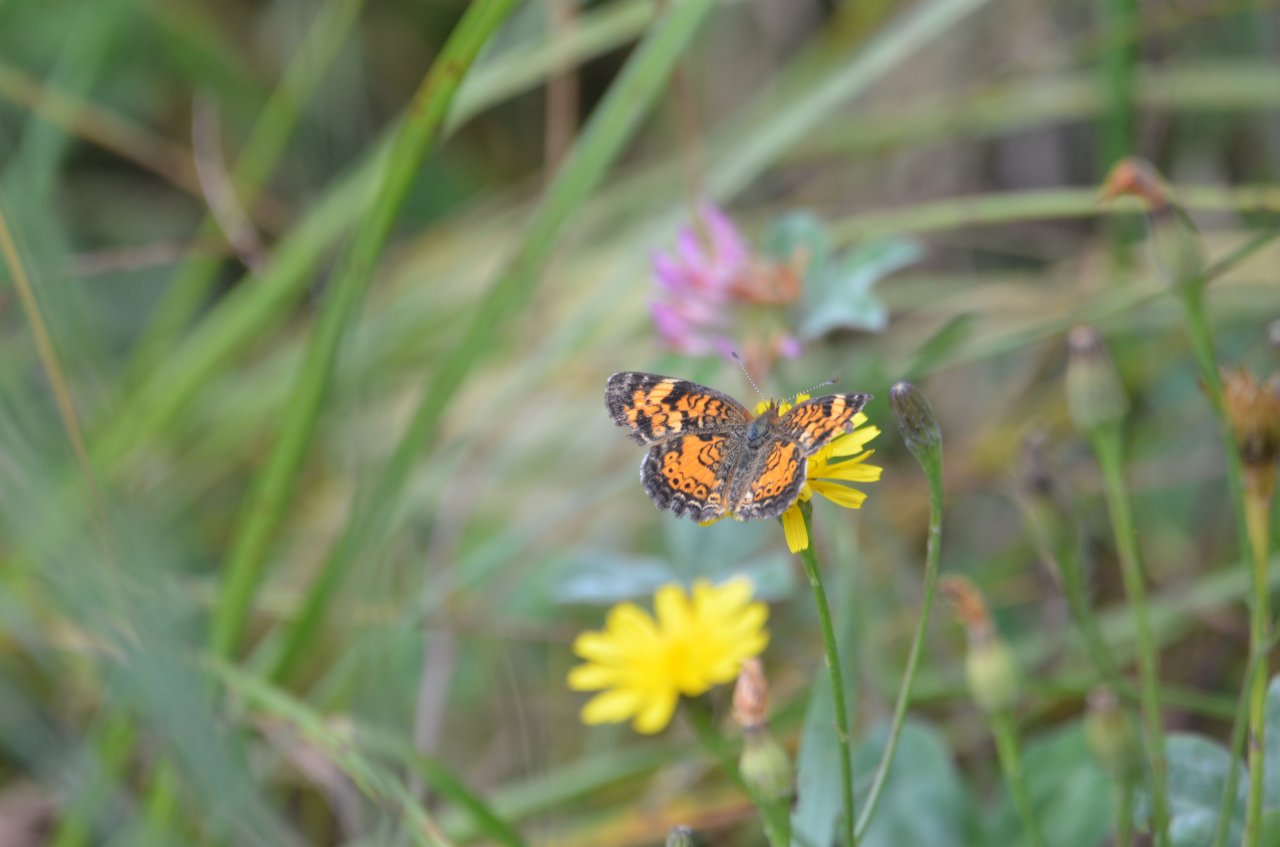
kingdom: Animalia
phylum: Arthropoda
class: Insecta
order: Lepidoptera
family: Nymphalidae
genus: Phyciodes
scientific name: Phyciodes tharos
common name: Pearl Crescent
